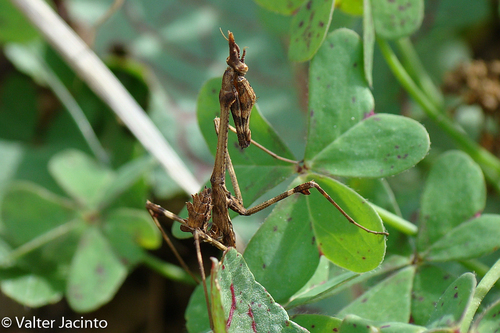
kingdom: Animalia
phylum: Arthropoda
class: Insecta
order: Mantodea
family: Empusidae
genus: Empusa
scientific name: Empusa pennata
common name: Conehead mantis
